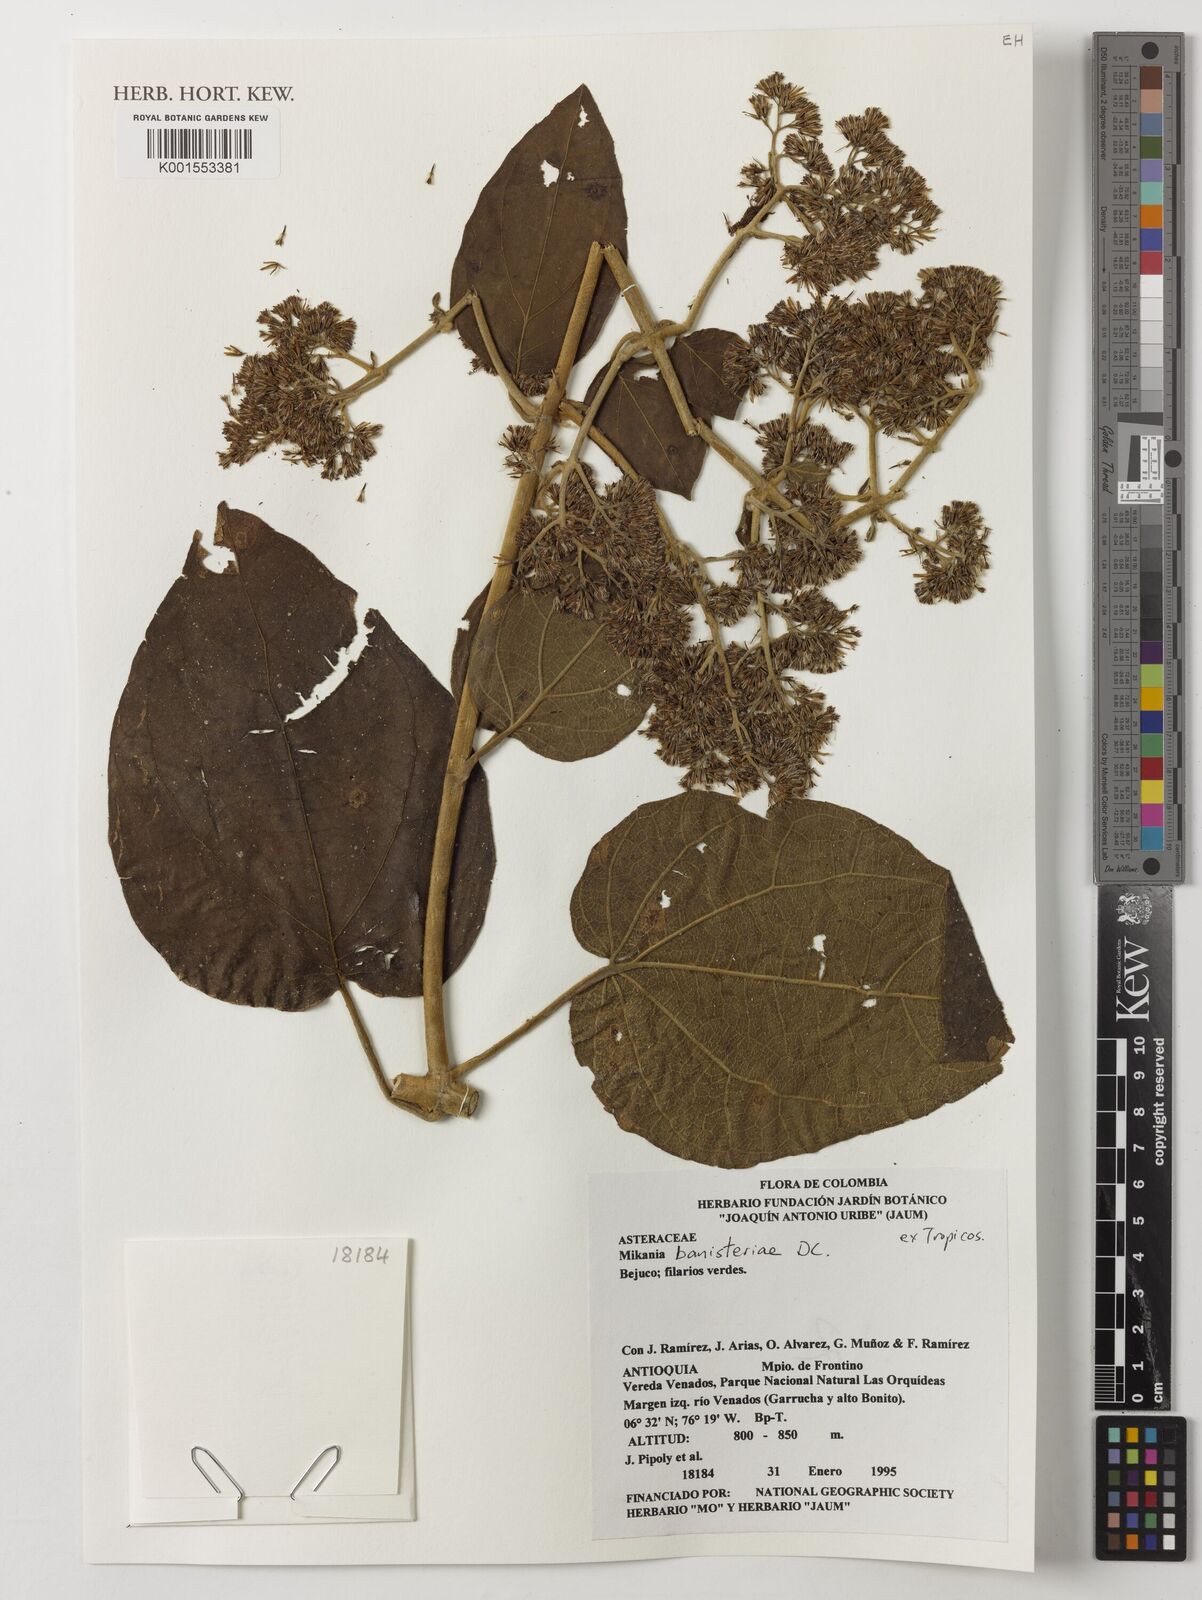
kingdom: Plantae
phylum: Tracheophyta
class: Magnoliopsida
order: Asterales
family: Asteraceae
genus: Mikania
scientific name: Mikania banisteriae
